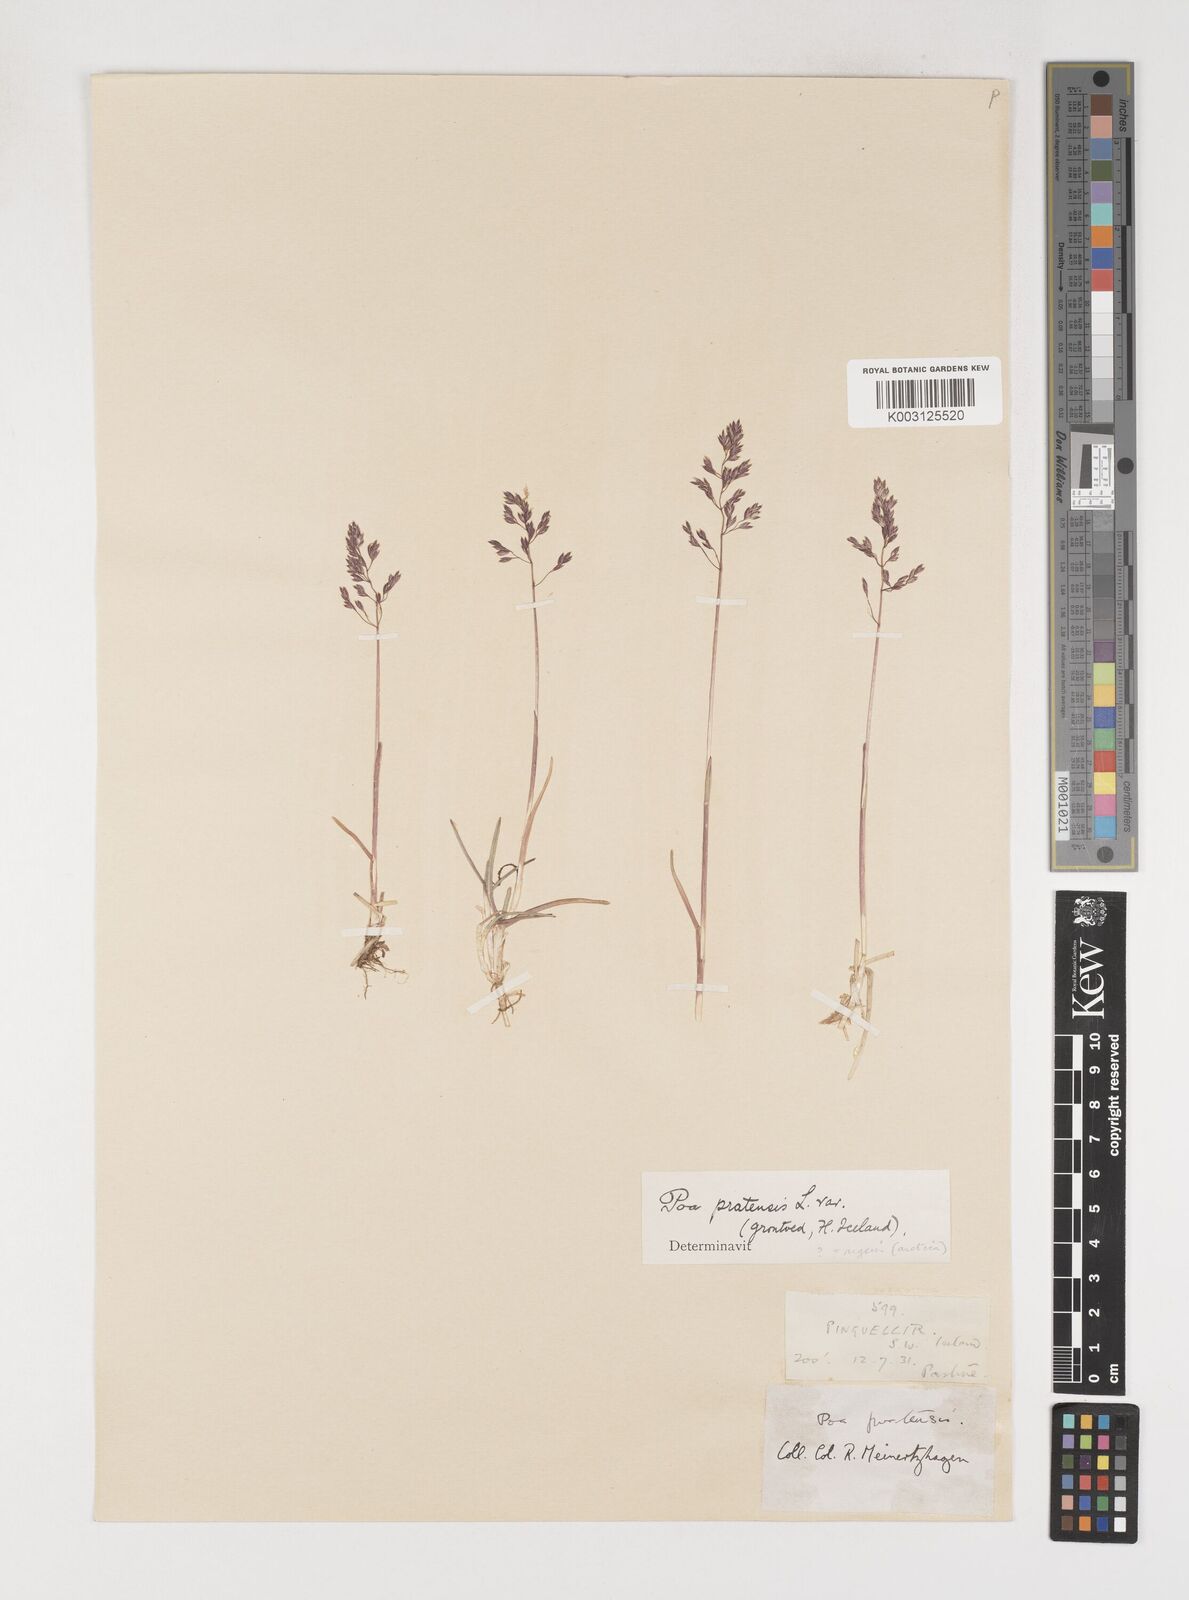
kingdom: Plantae
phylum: Tracheophyta
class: Liliopsida
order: Poales
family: Poaceae
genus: Poa
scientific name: Poa arctica
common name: Arctic bluegrass
